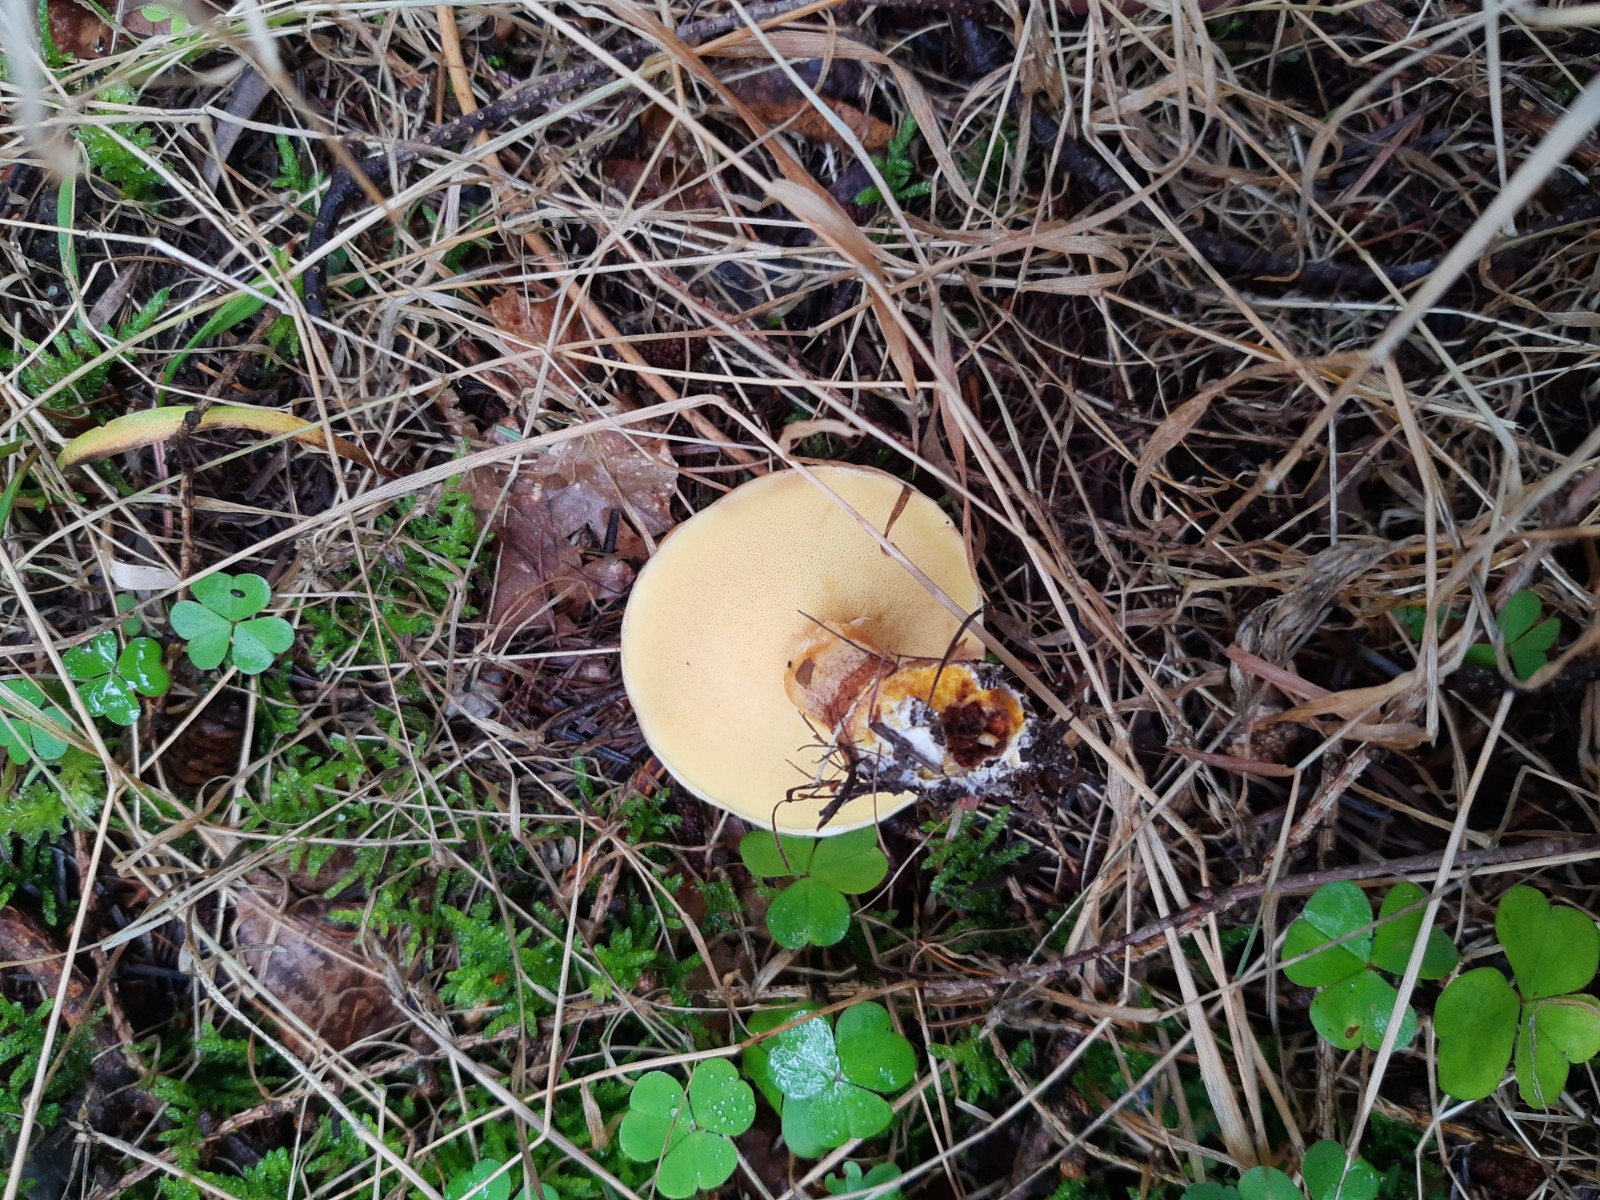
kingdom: Fungi
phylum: Basidiomycota
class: Agaricomycetes
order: Boletales
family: Suillaceae
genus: Suillus
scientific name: Suillus grevillei
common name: lærke-slimrørhat
